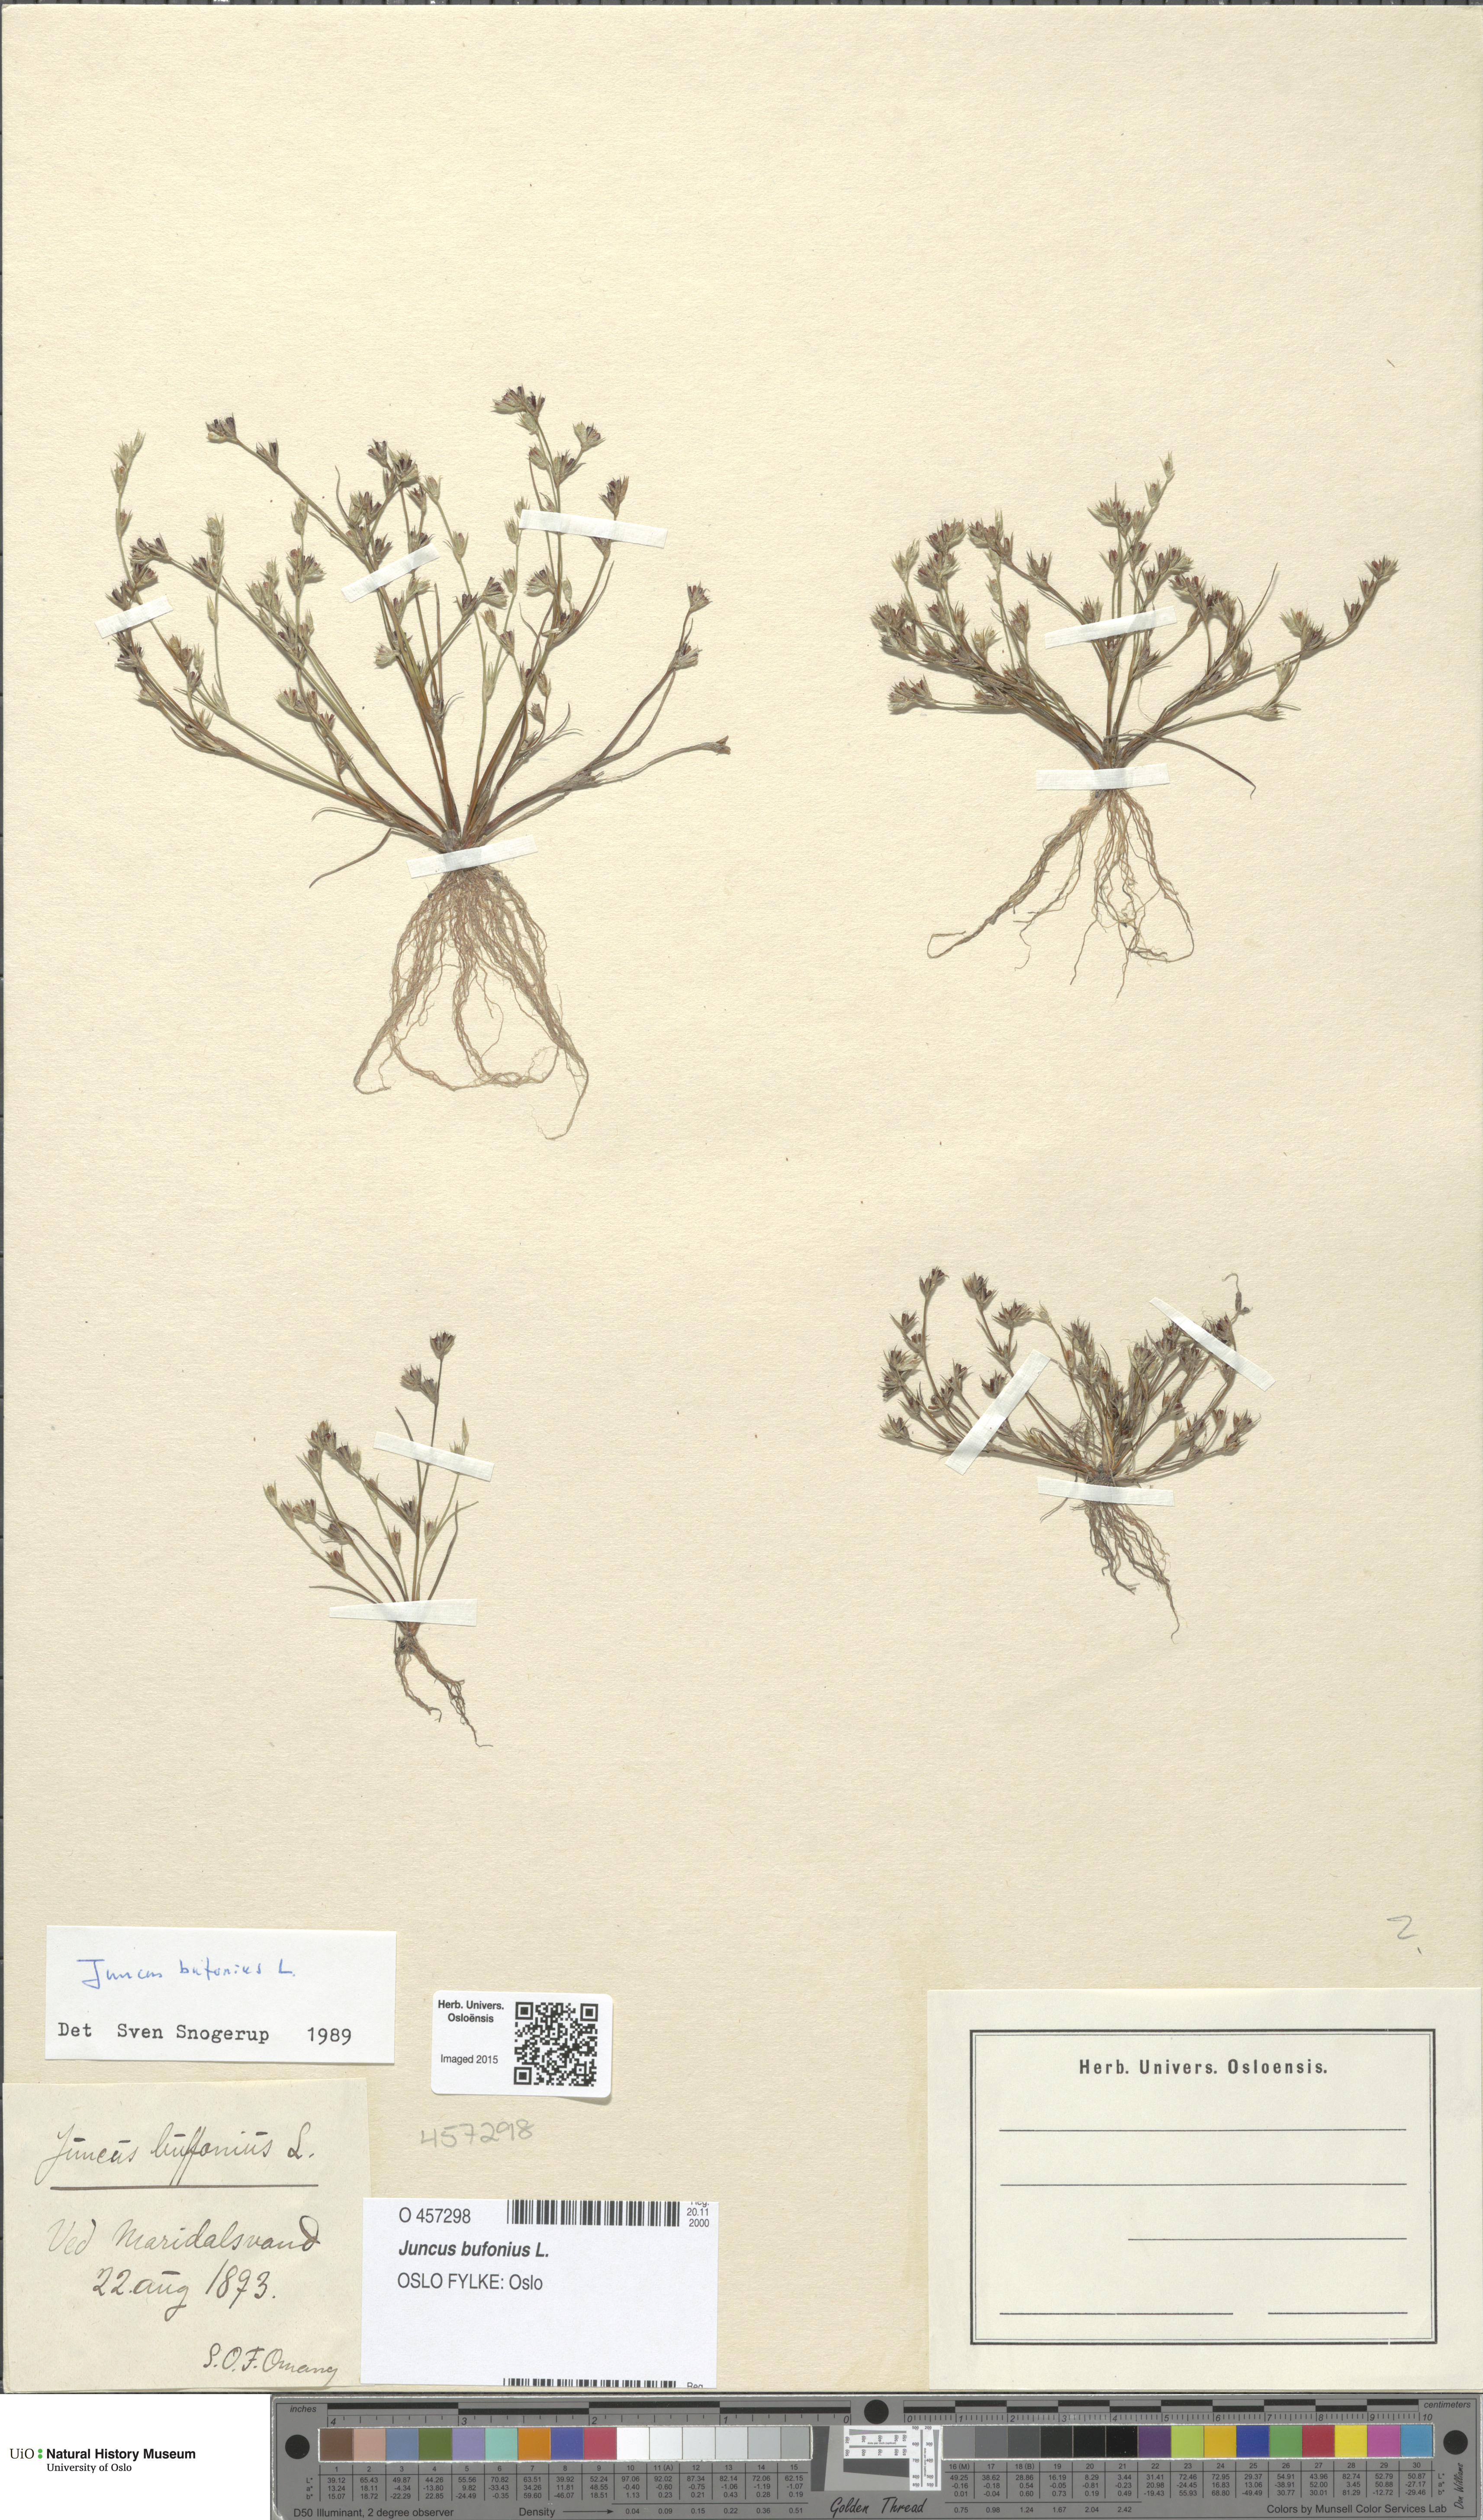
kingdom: Plantae
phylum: Tracheophyta
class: Liliopsida
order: Poales
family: Juncaceae
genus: Juncus
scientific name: Juncus bufonius
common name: Toad rush
